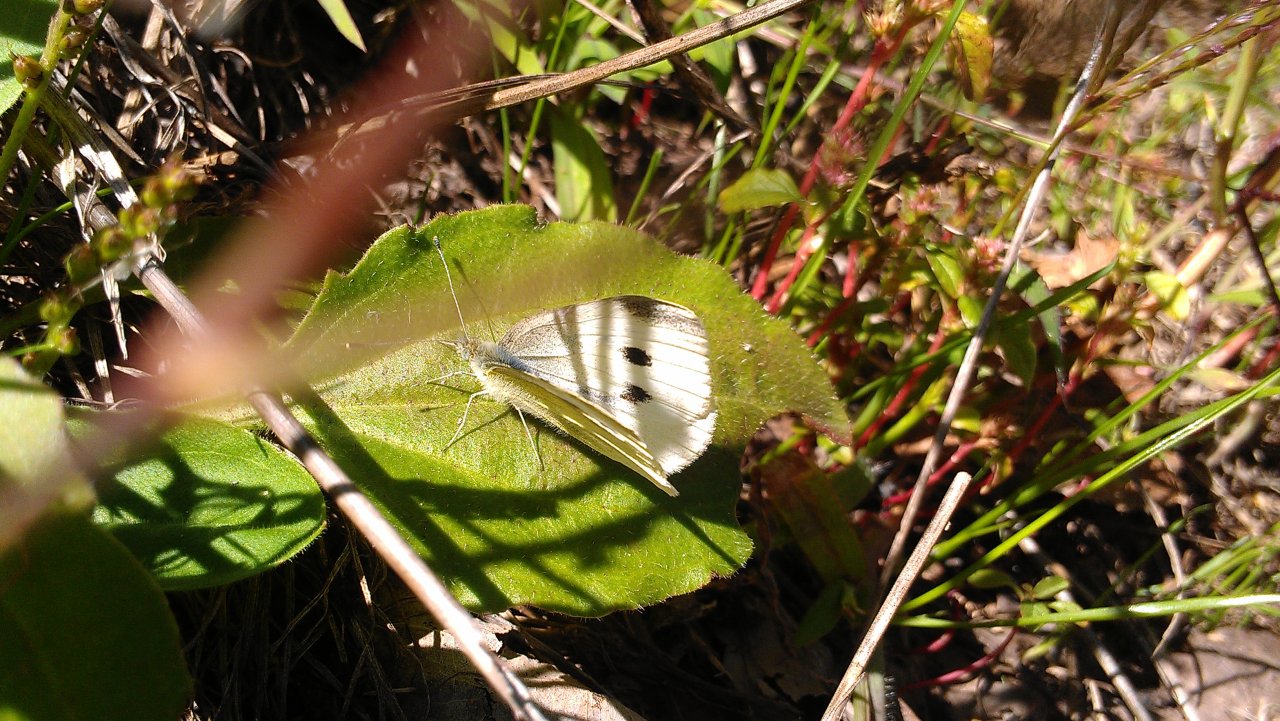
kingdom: Animalia
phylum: Arthropoda
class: Insecta
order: Lepidoptera
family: Pieridae
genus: Pieris
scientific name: Pieris rapae
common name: Cabbage White
